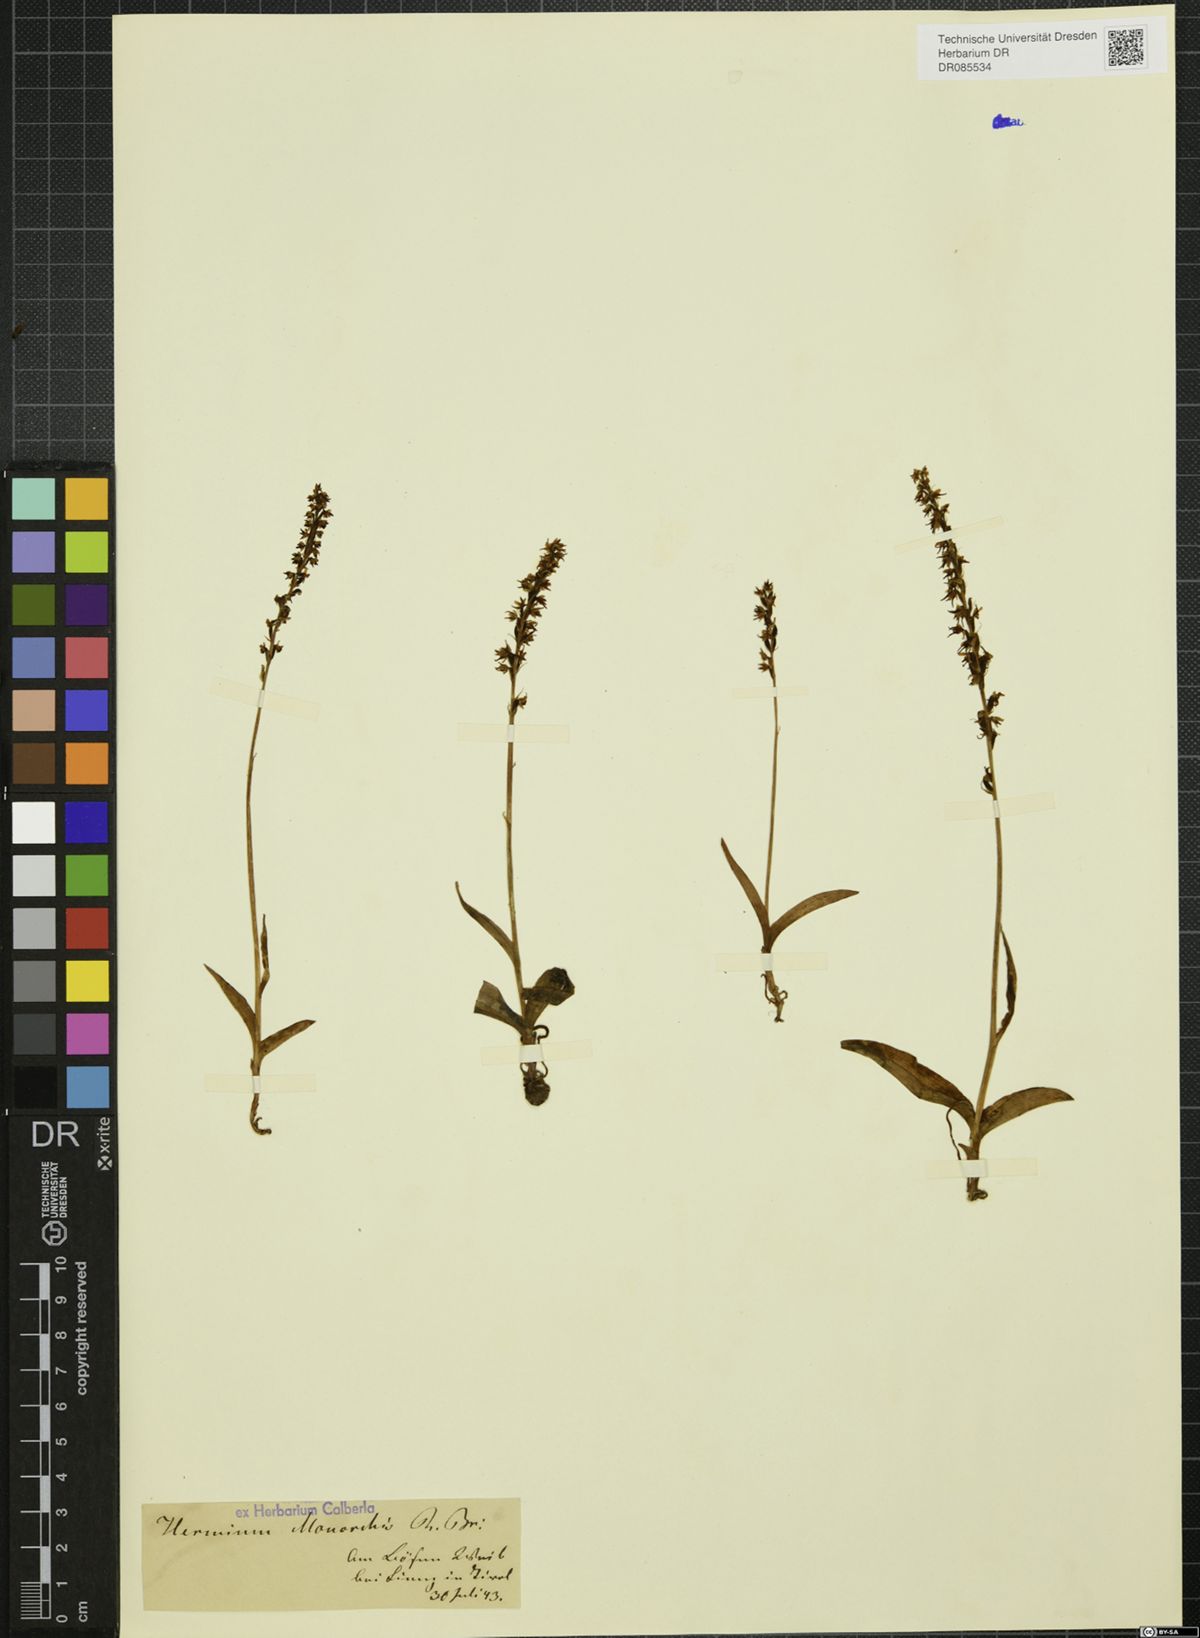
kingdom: Plantae
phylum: Tracheophyta
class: Liliopsida
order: Asparagales
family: Orchidaceae
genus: Herminium
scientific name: Herminium monorchis
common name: Musk orchid
